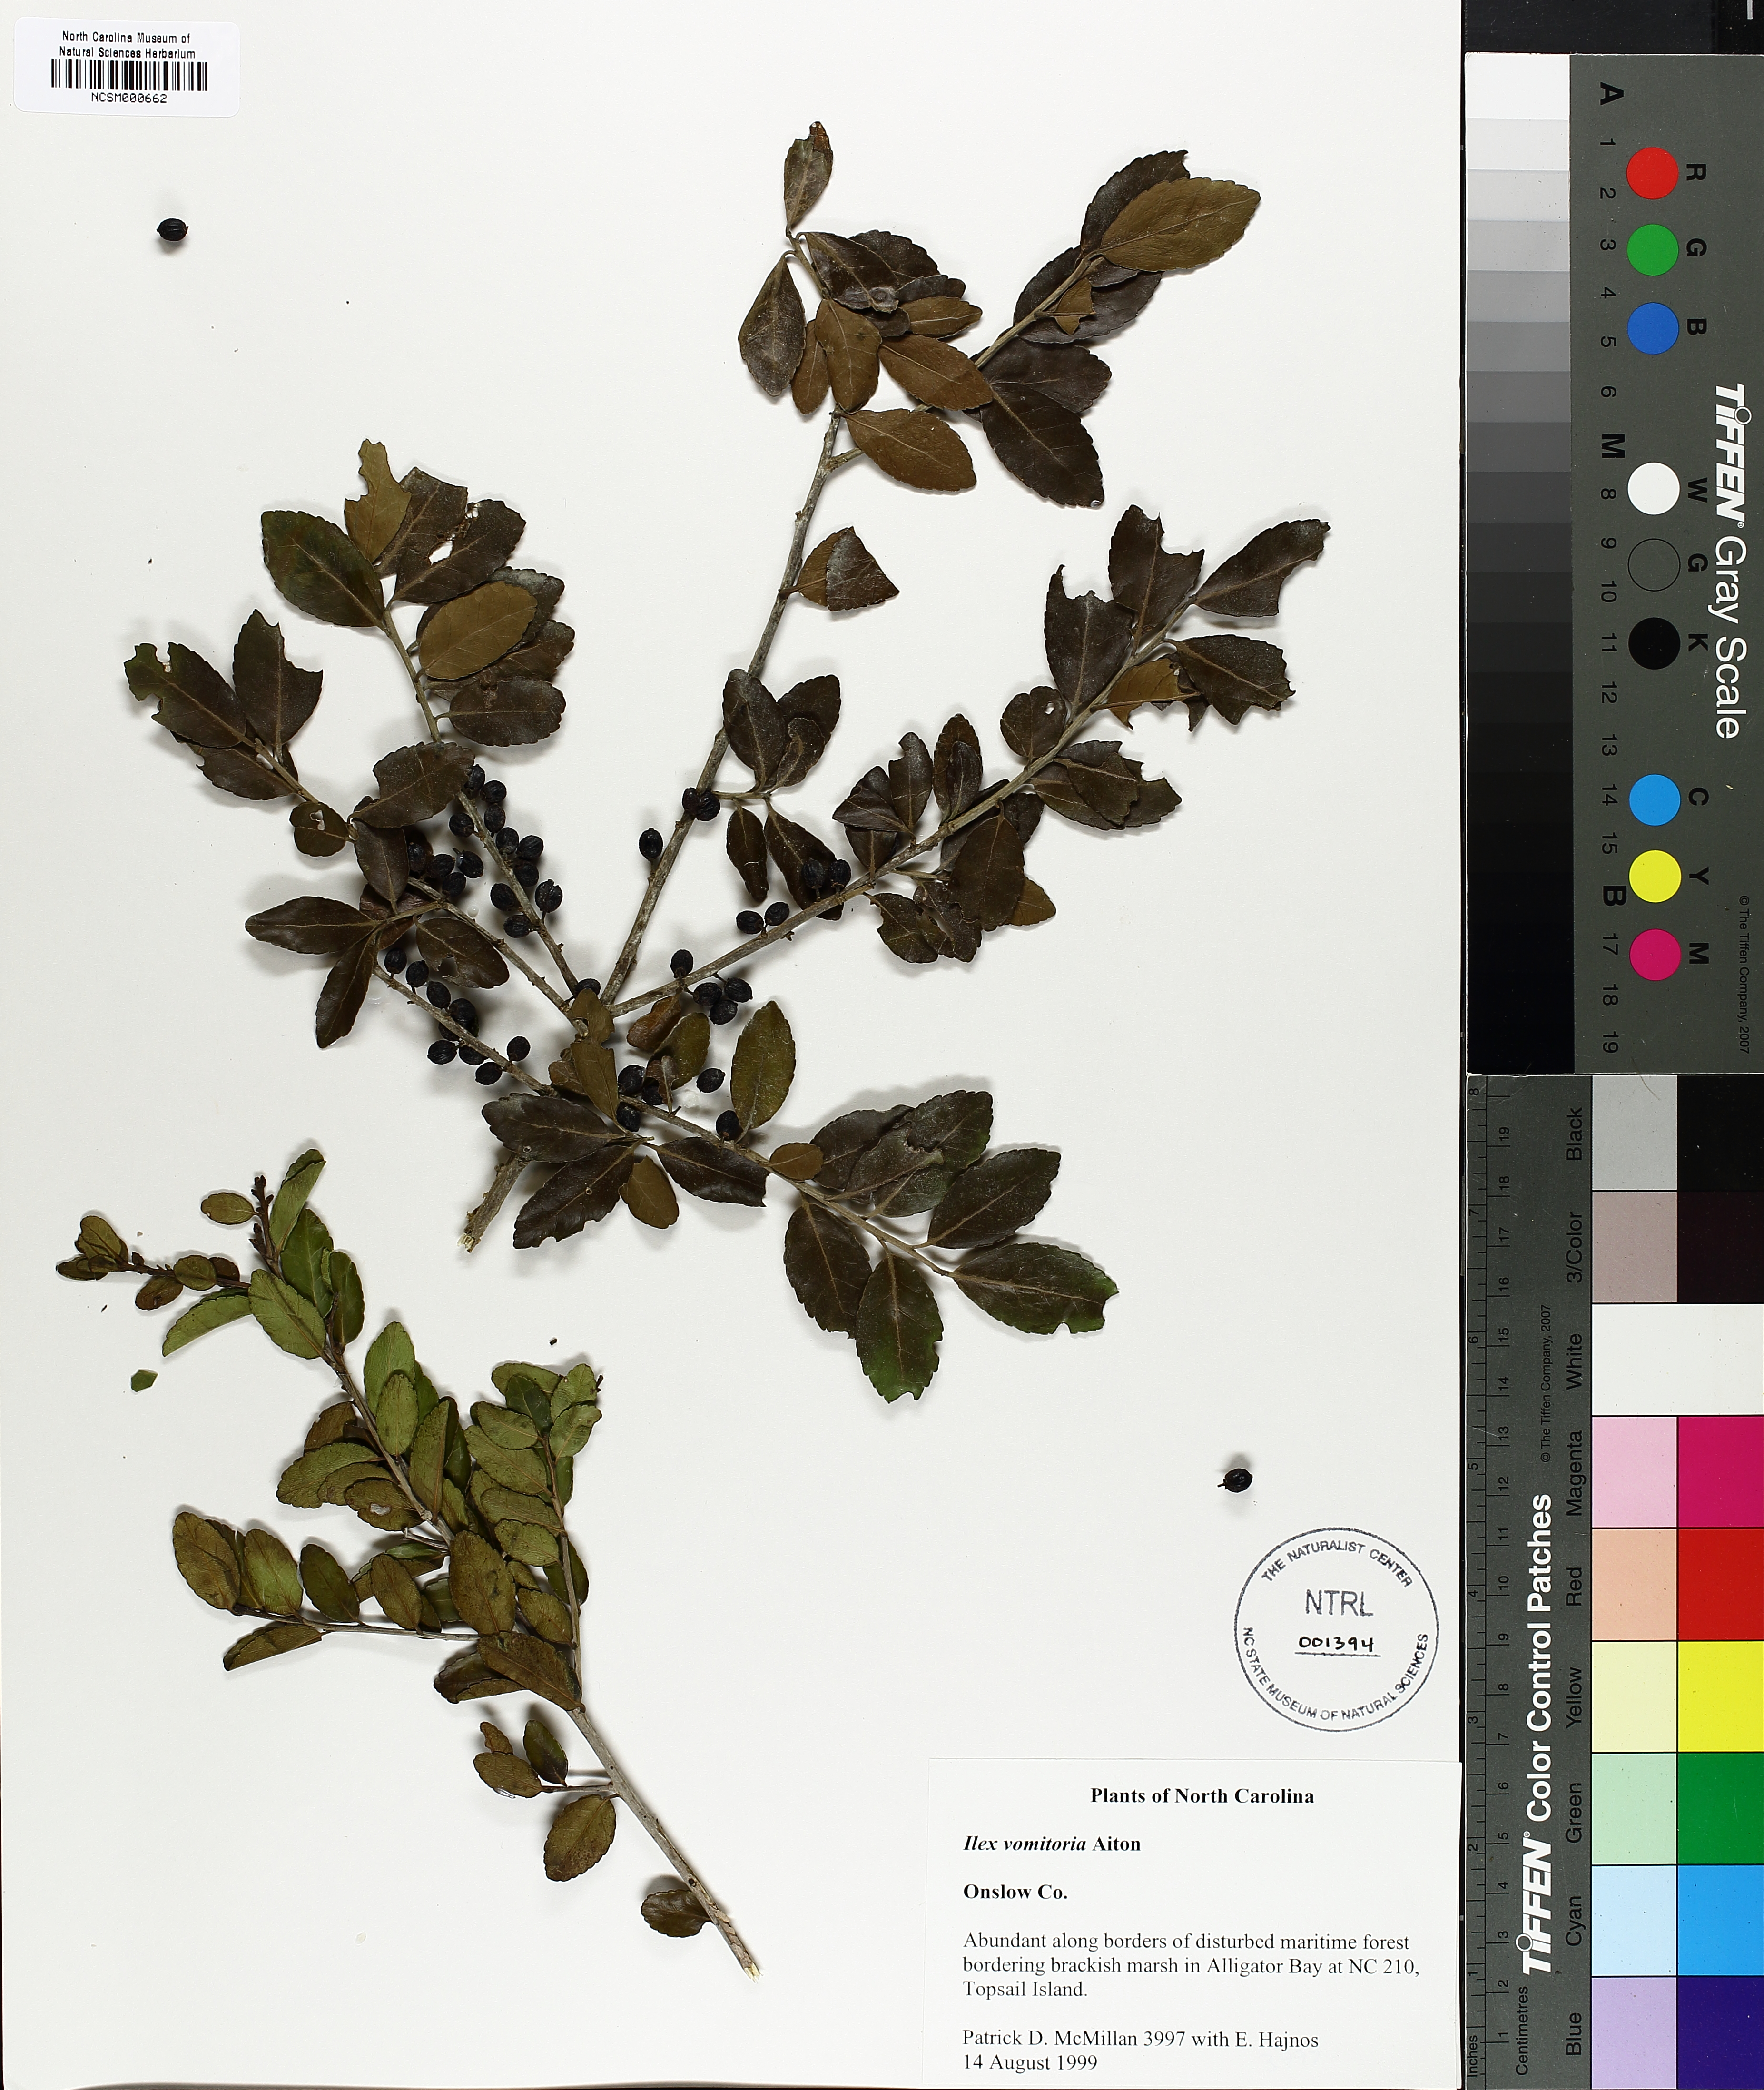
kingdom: Plantae
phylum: Tracheophyta
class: Magnoliopsida
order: Aquifoliales
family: Aquifoliaceae
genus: Ilex
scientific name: Ilex vomitoria
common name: Yaupon holly
